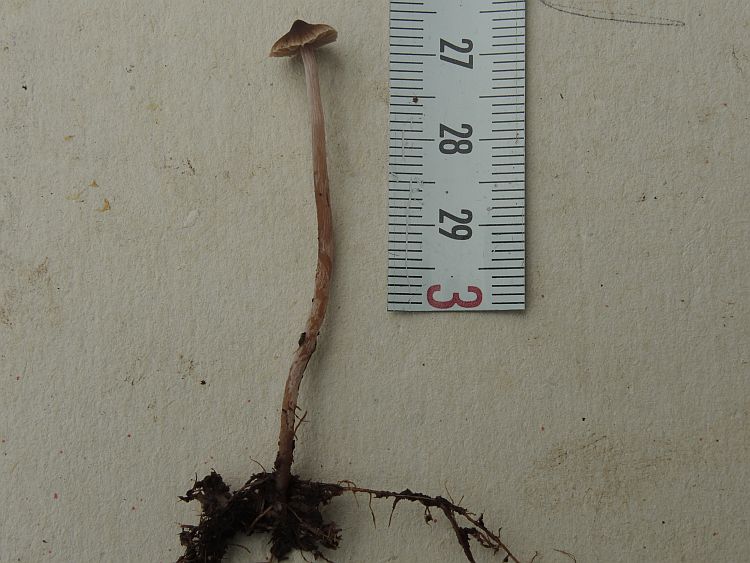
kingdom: Fungi
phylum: Basidiomycota
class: Agaricomycetes
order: Agaricales
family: Cortinariaceae
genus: Cortinarius
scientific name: Cortinarius
